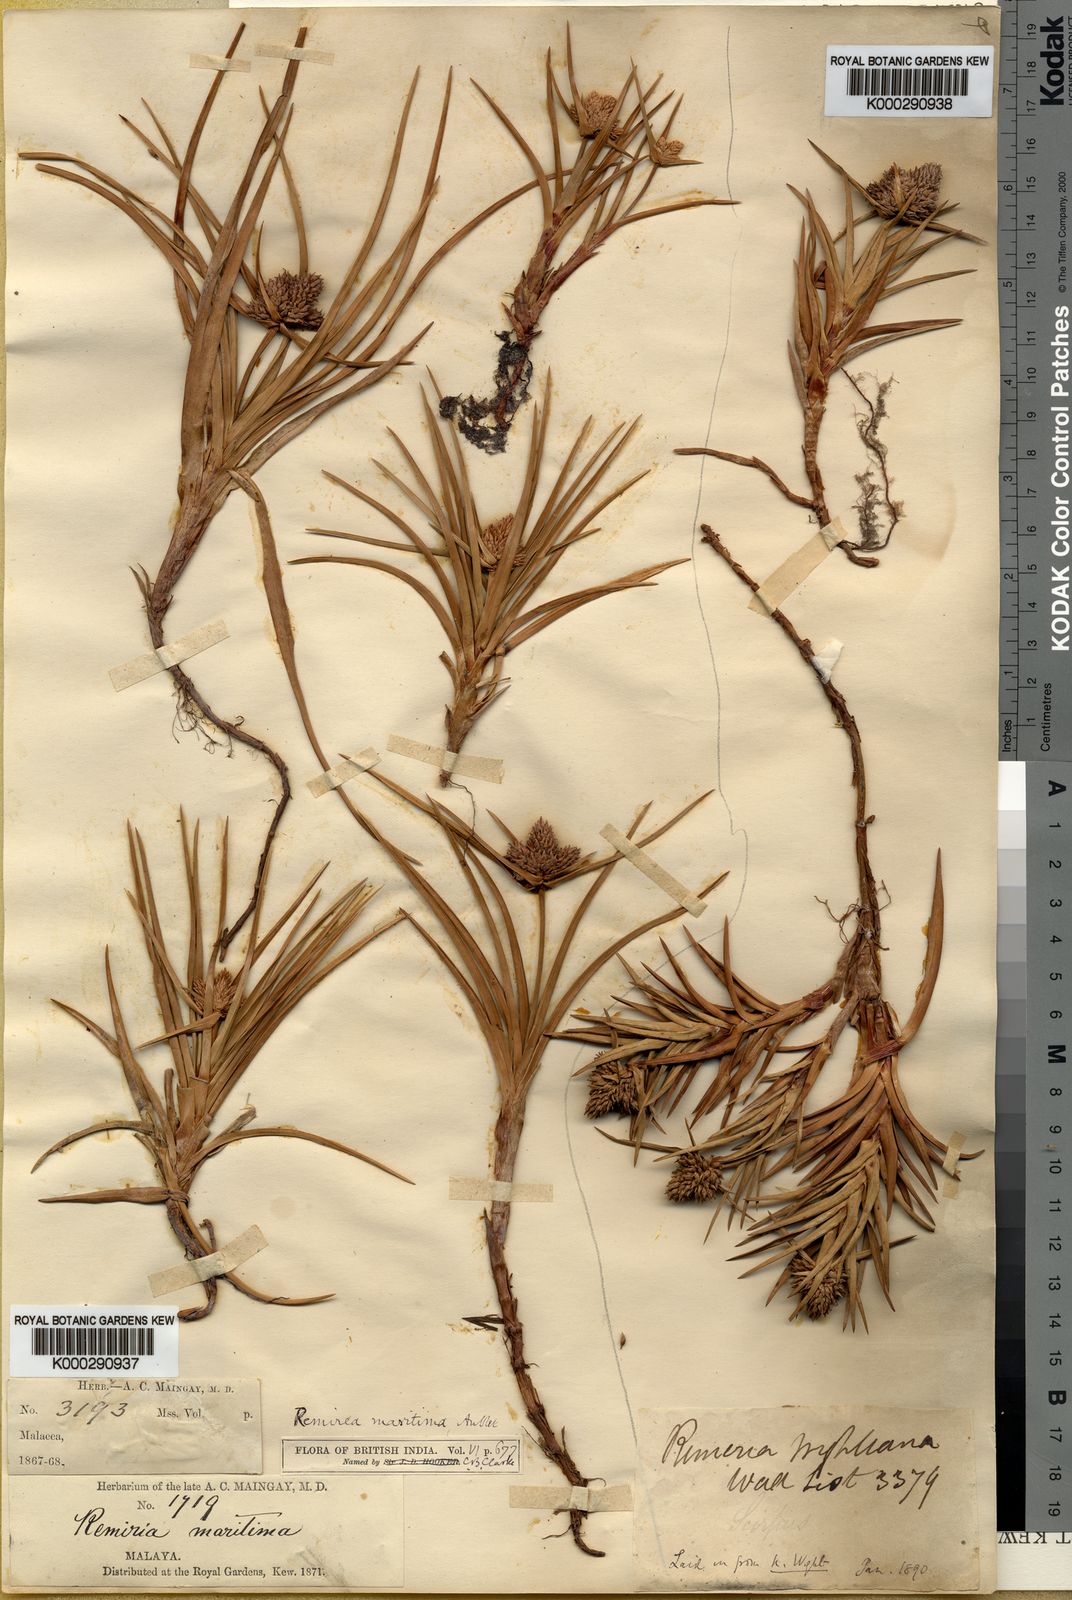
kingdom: Plantae
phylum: Tracheophyta
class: Liliopsida
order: Poales
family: Cyperaceae
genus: Cyperus
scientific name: Cyperus pedunculatus
